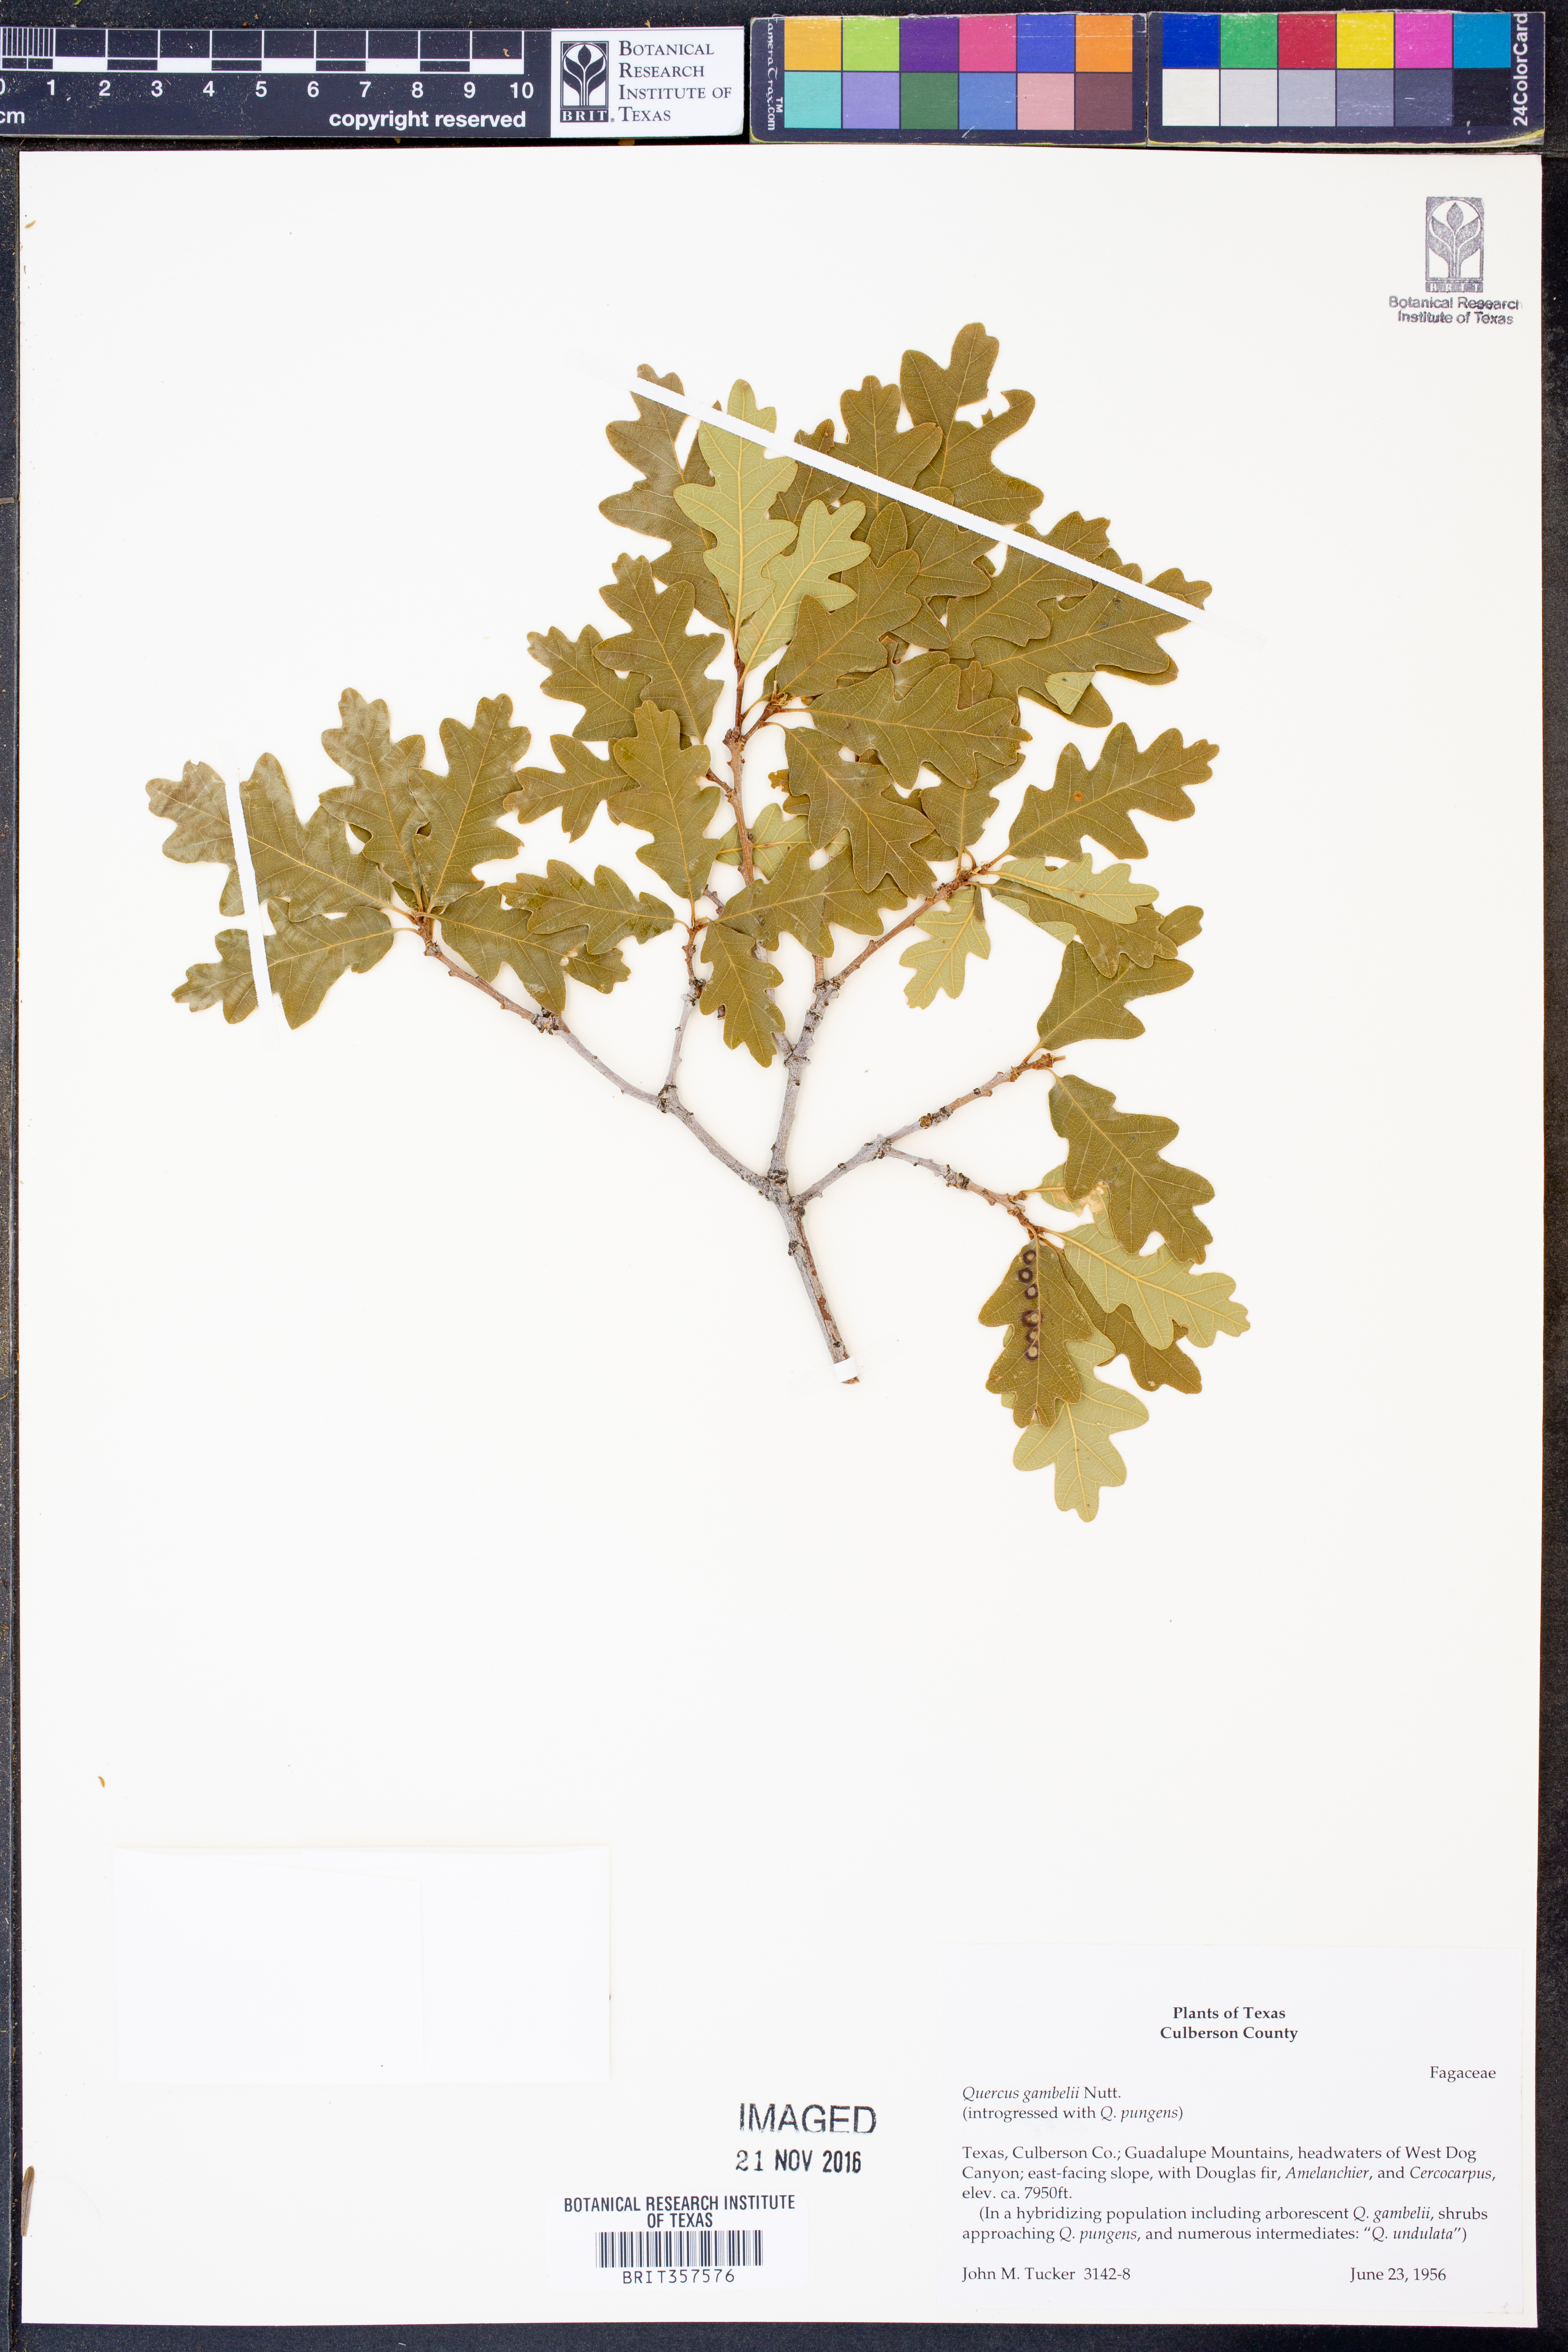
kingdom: Plantae
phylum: Tracheophyta
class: Magnoliopsida
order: Fagales
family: Fagaceae
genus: Quercus
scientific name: Quercus gambelii
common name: Gambel oak
